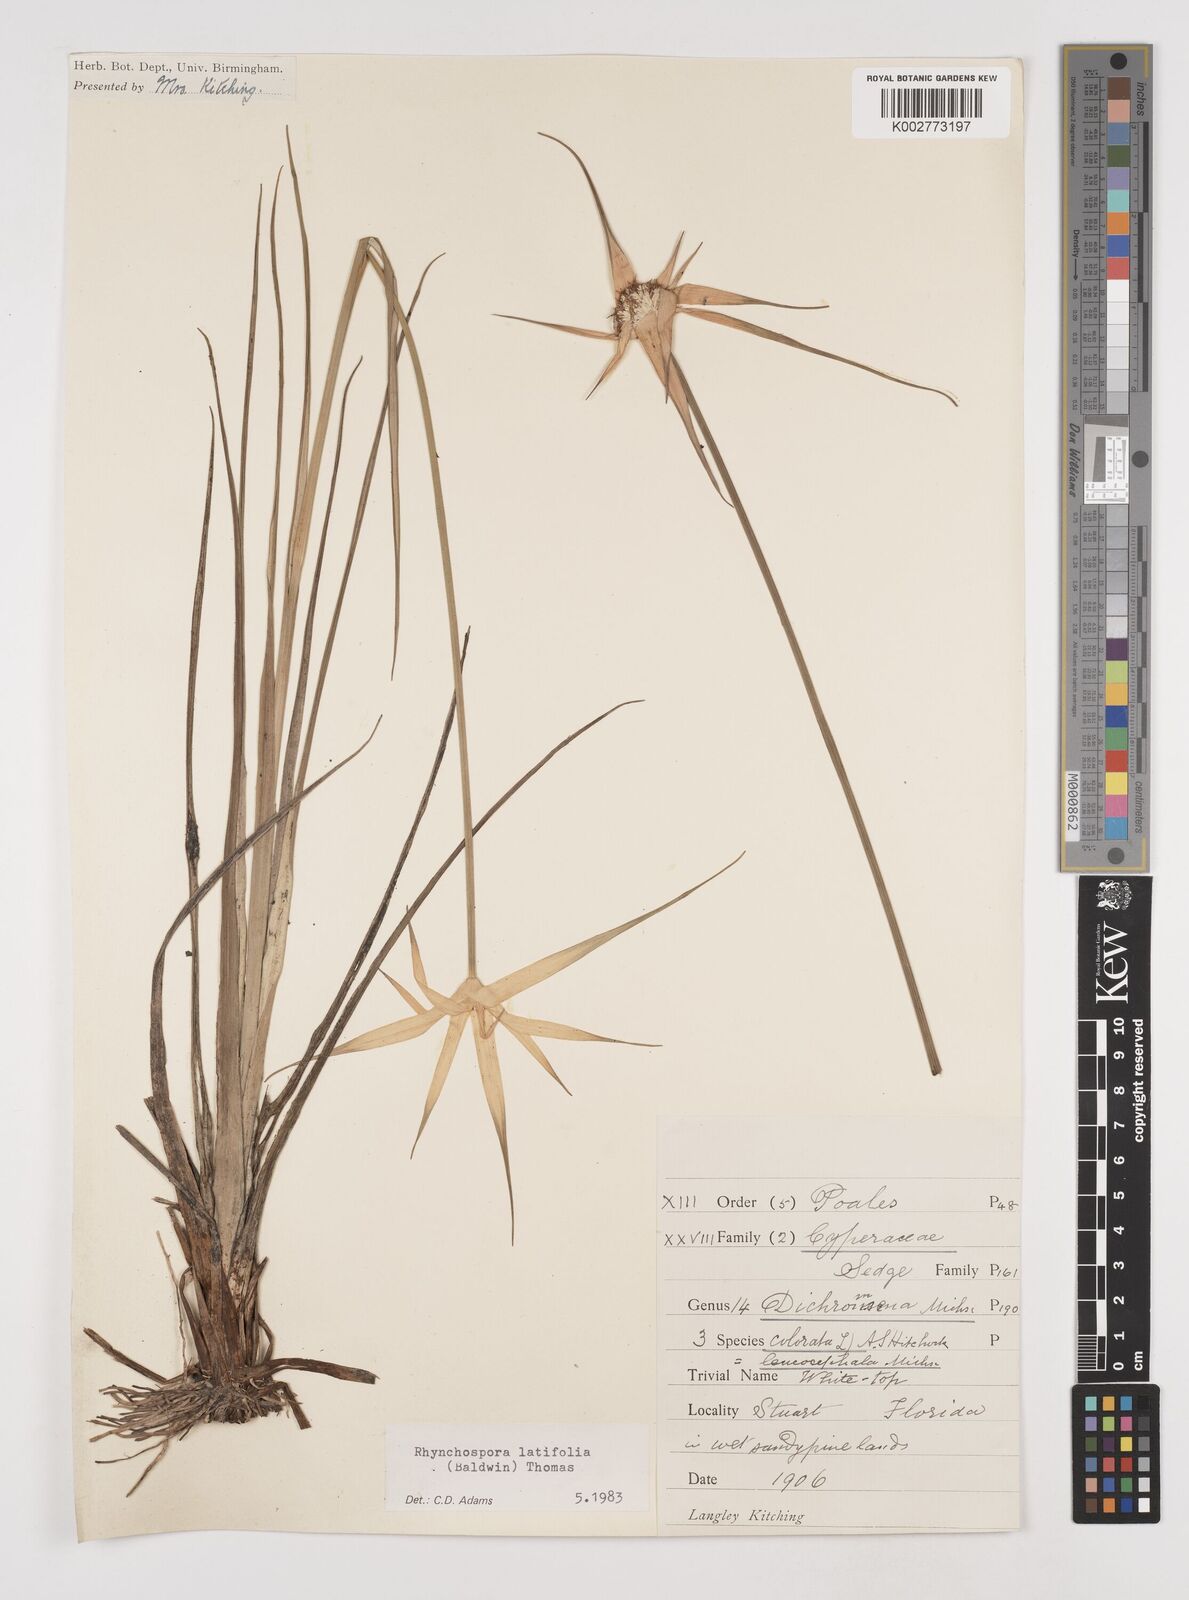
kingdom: Plantae
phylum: Tracheophyta
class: Liliopsida
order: Poales
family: Cyperaceae
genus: Rhynchospora
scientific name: Rhynchospora latifolia
